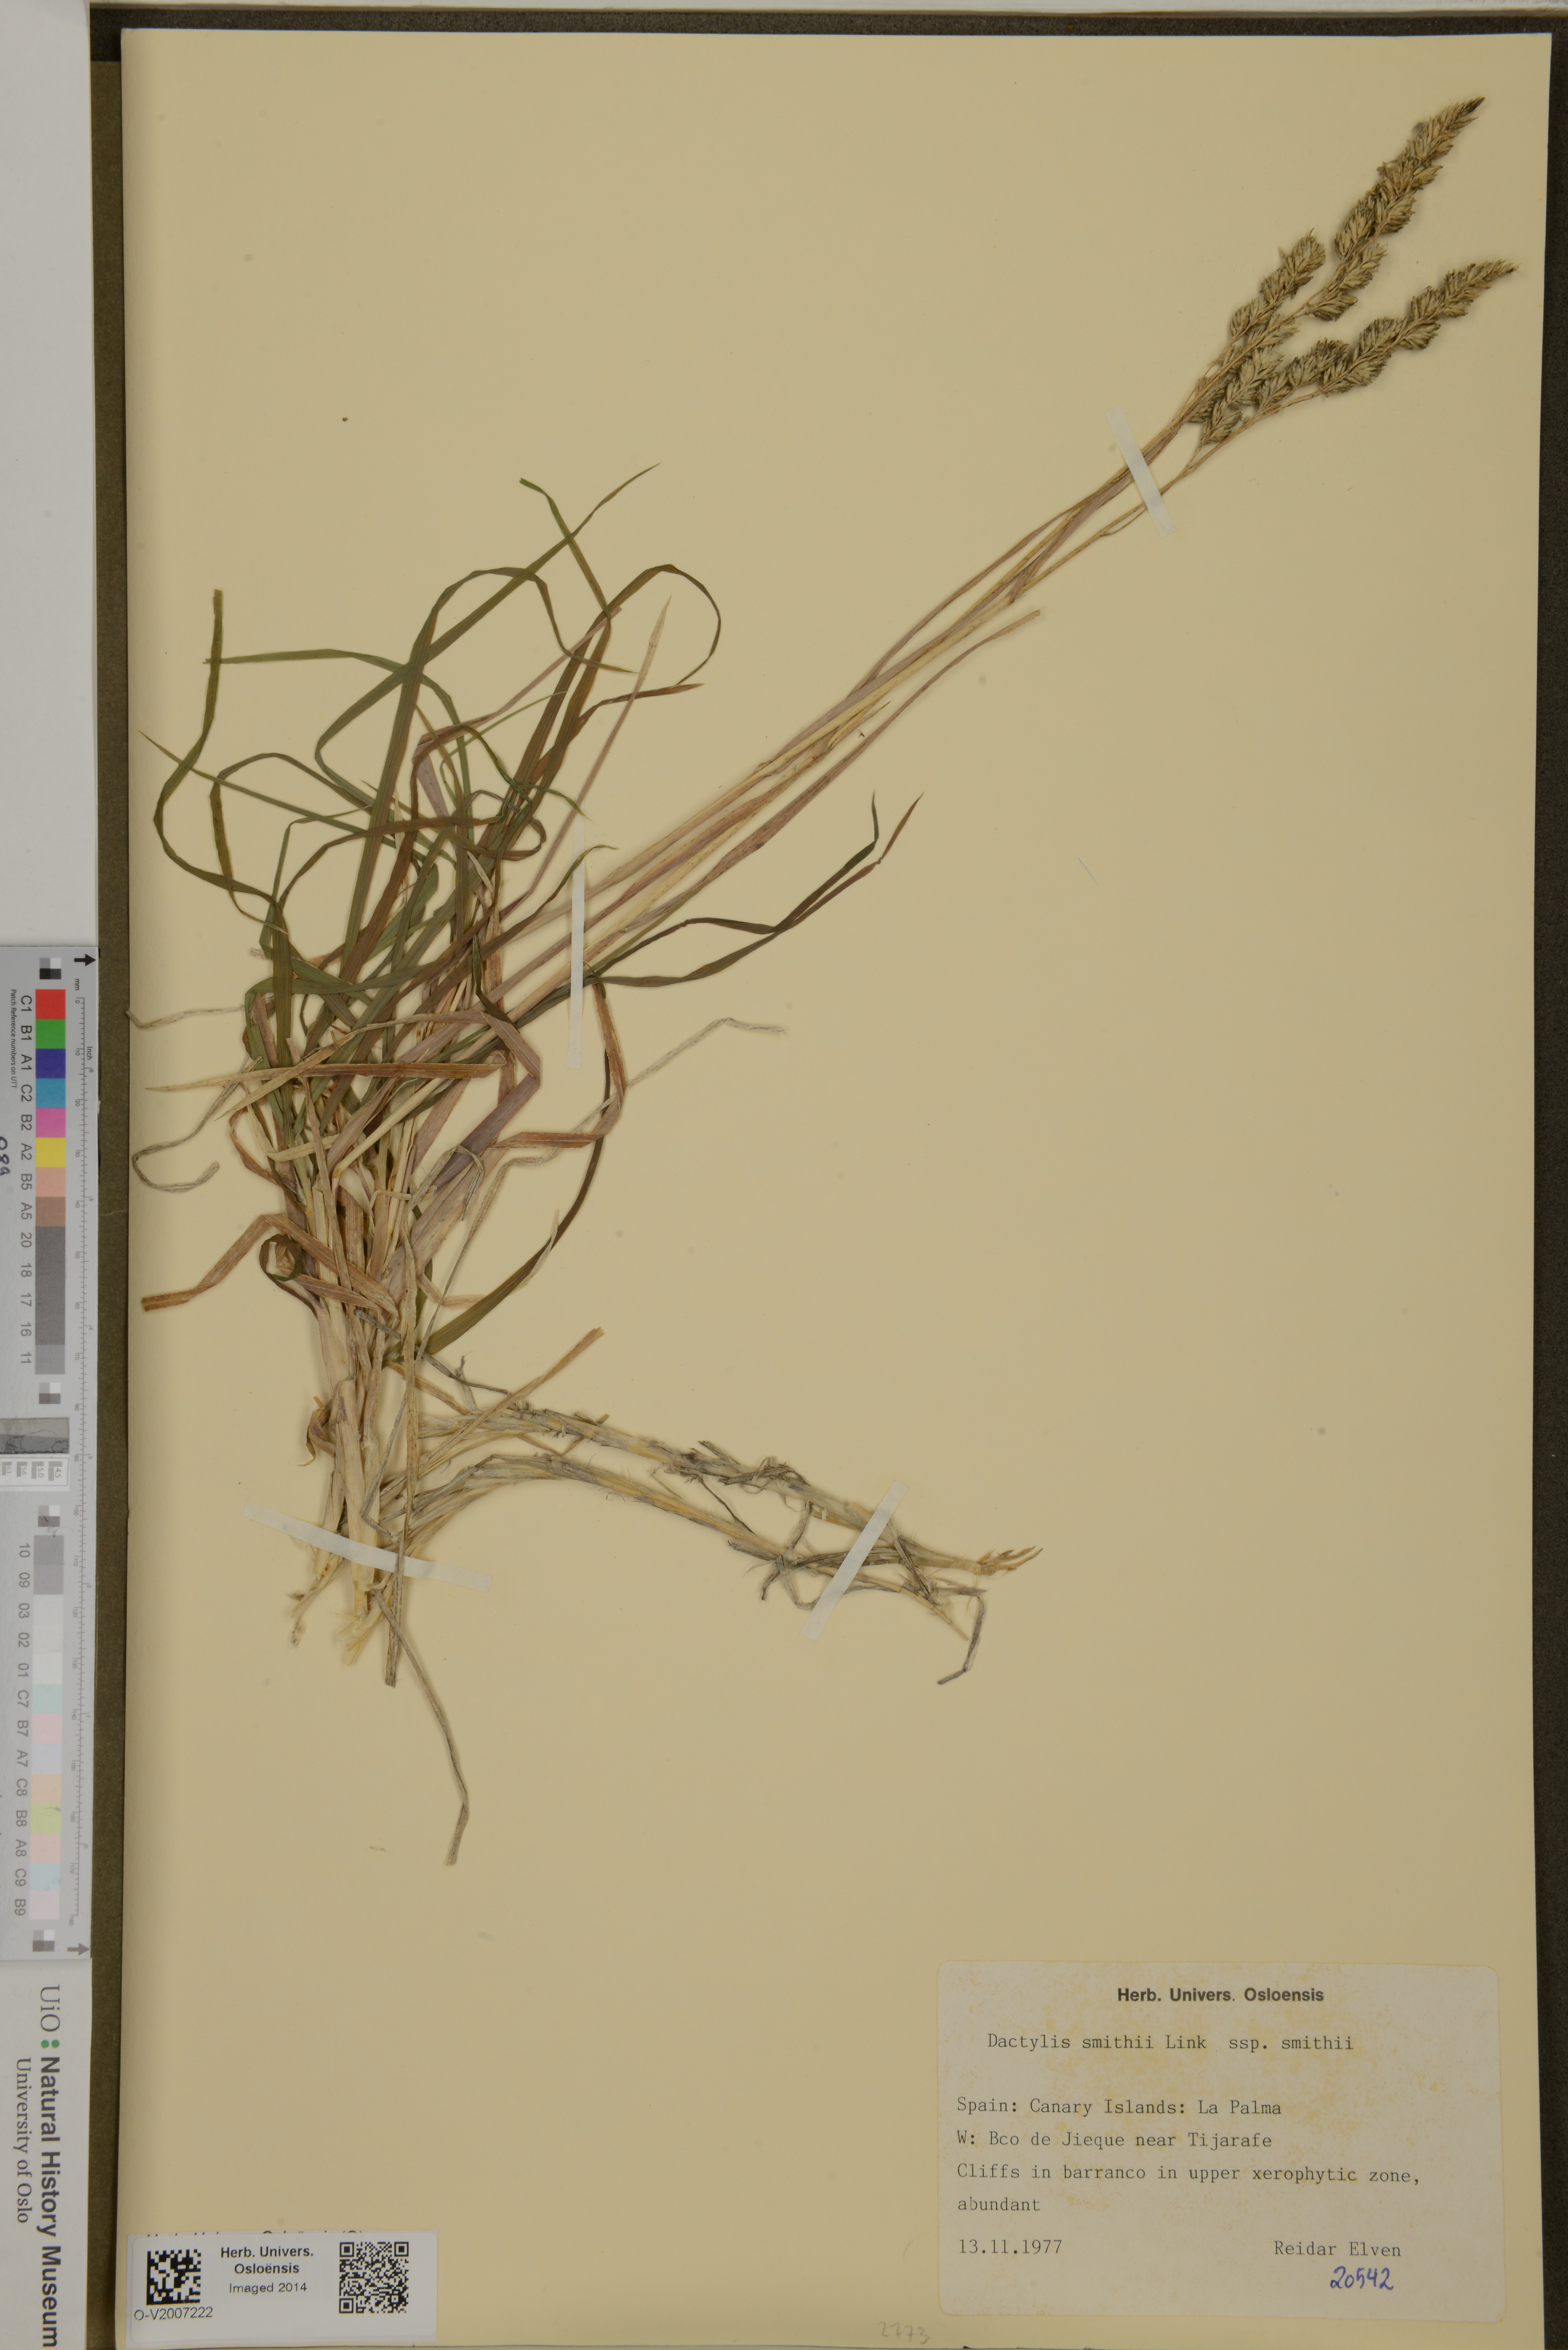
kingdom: Plantae
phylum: Tracheophyta
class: Liliopsida
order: Poales
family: Poaceae
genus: Dactylis
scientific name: Dactylis smithii
